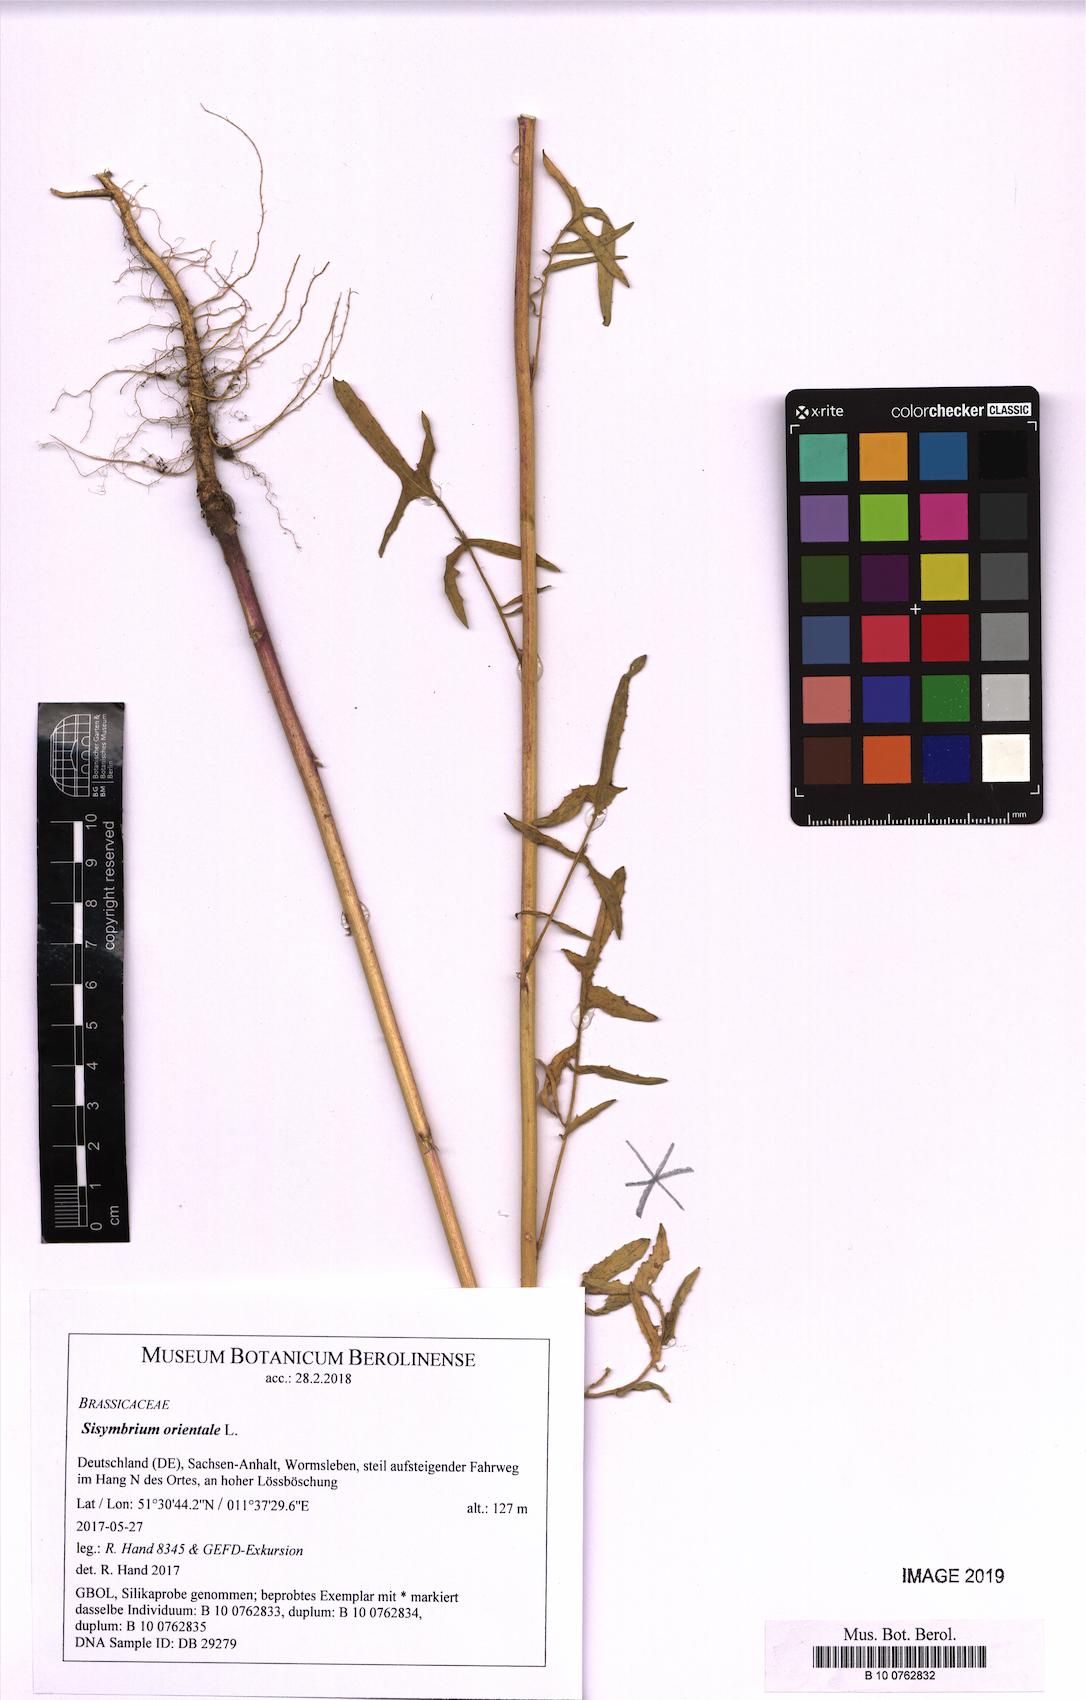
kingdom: Plantae
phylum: Tracheophyta
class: Magnoliopsida
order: Brassicales
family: Brassicaceae
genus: Sisymbrium
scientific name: Sisymbrium orientale
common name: Eastern rocket
